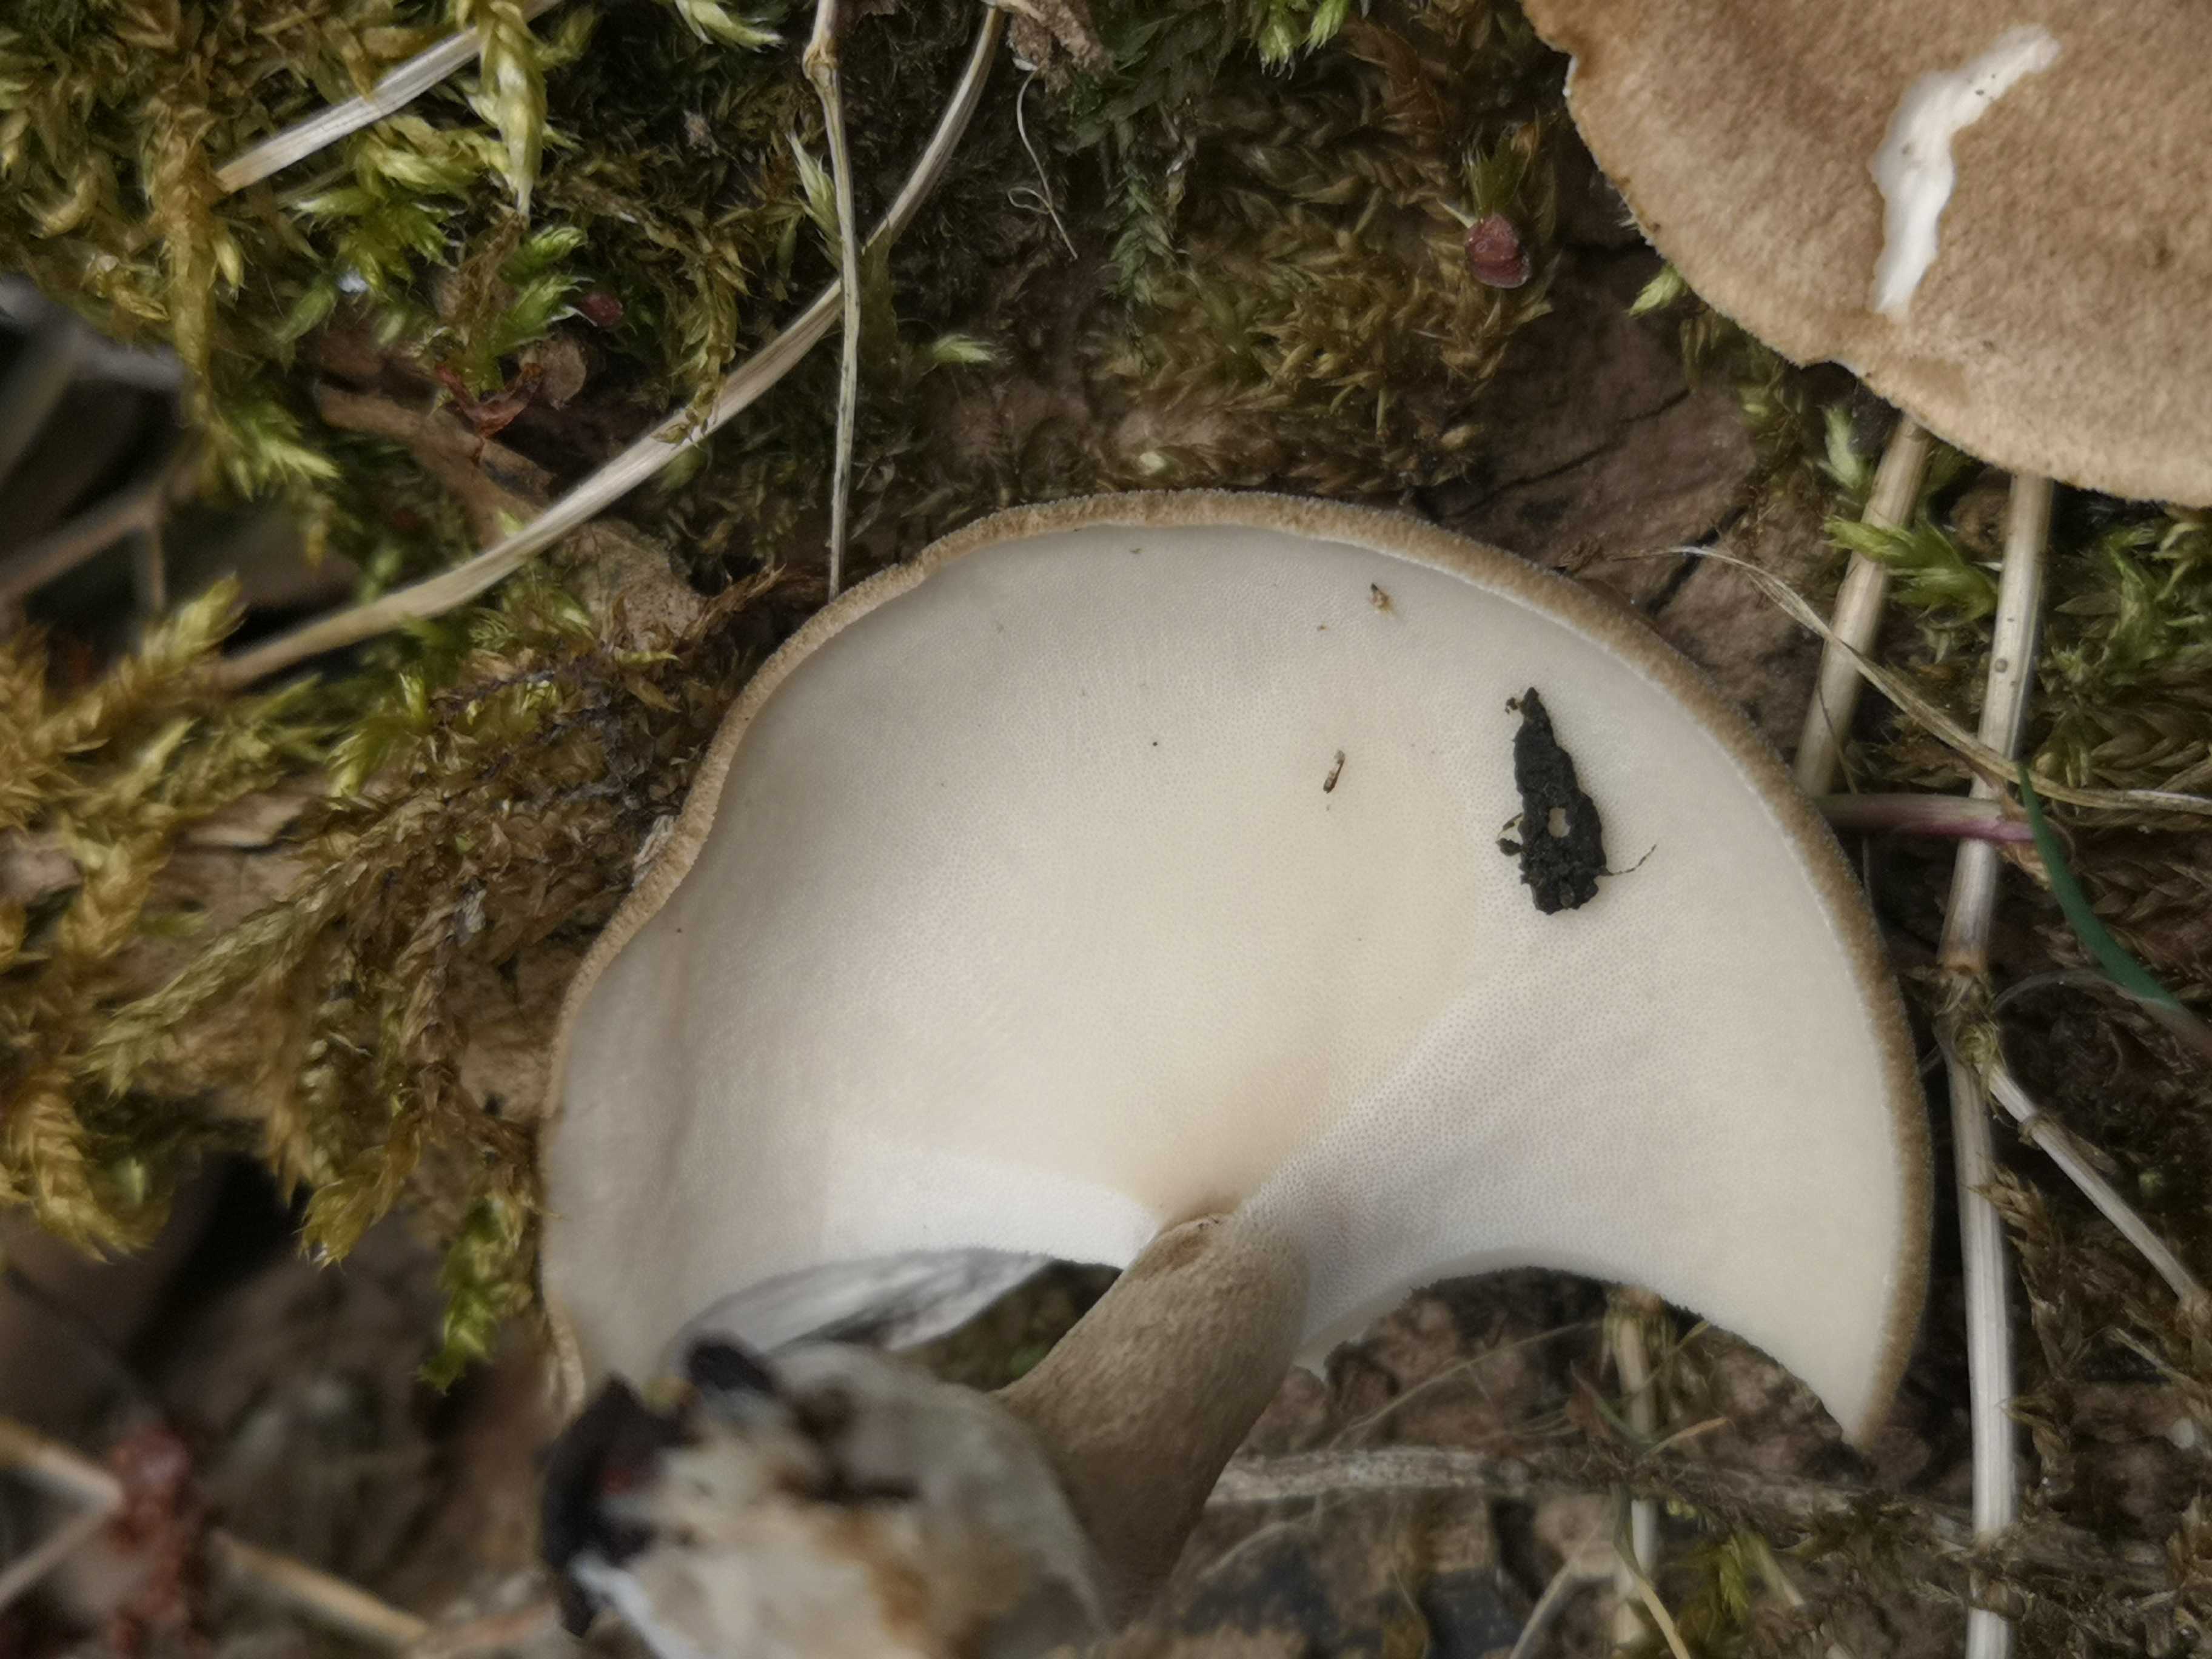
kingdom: Fungi
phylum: Basidiomycota
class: Agaricomycetes
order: Polyporales
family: Polyporaceae
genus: Lentinus
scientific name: Lentinus substrictus
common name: forårs-stilkporesvamp
